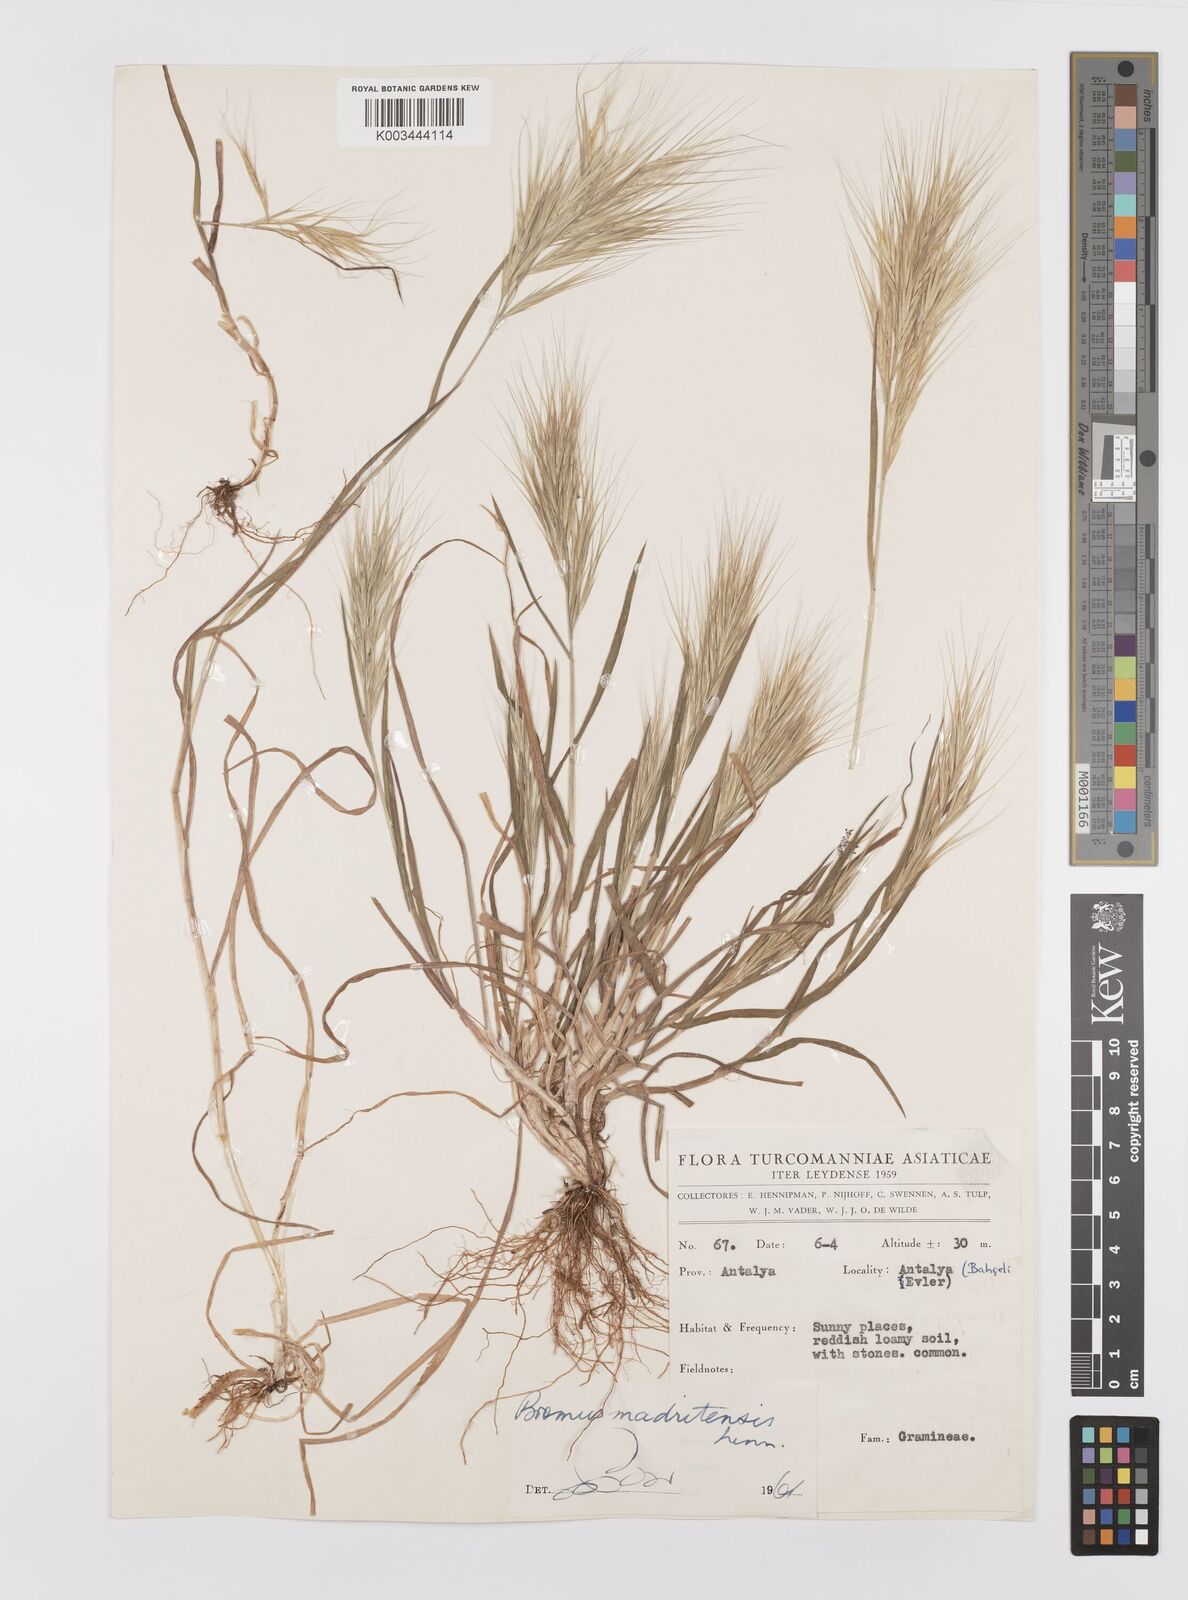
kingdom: Plantae
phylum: Tracheophyta
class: Liliopsida
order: Poales
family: Poaceae
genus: Bromus
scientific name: Bromus madritensis
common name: Compact brome
